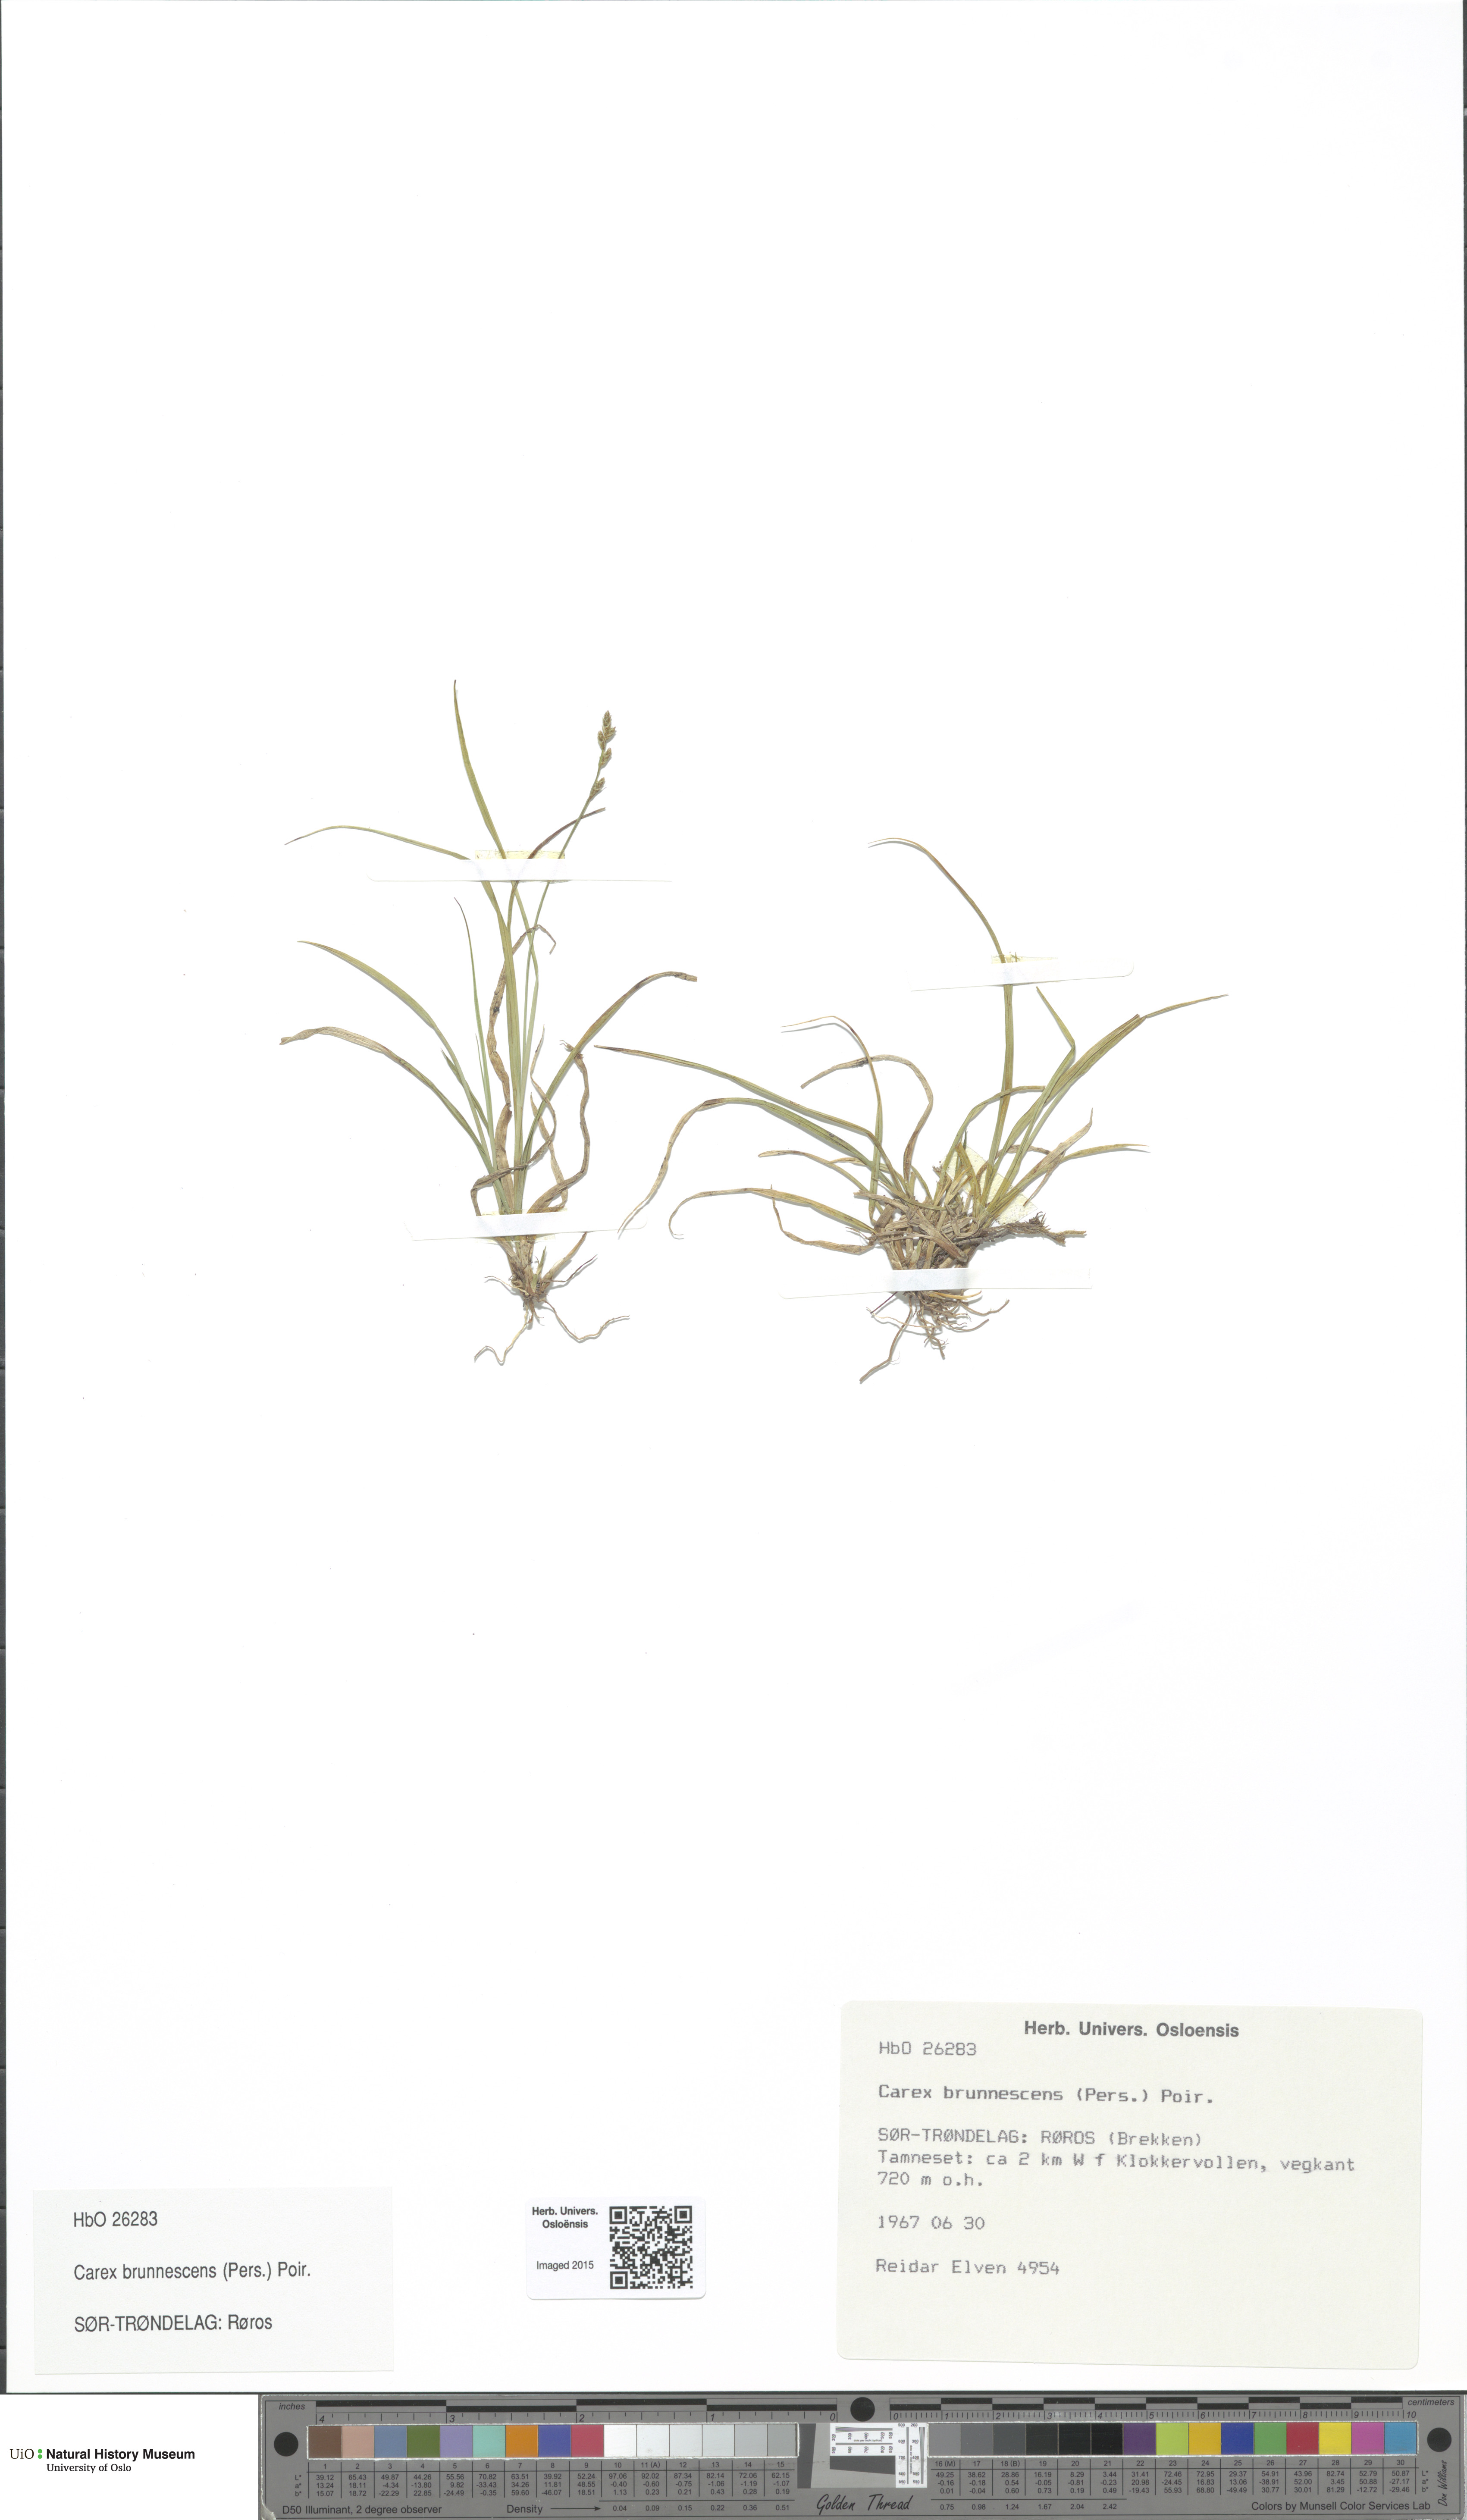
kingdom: Plantae
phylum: Tracheophyta
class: Liliopsida
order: Poales
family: Cyperaceae
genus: Carex
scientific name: Carex brunnescens
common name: Brown sedge
